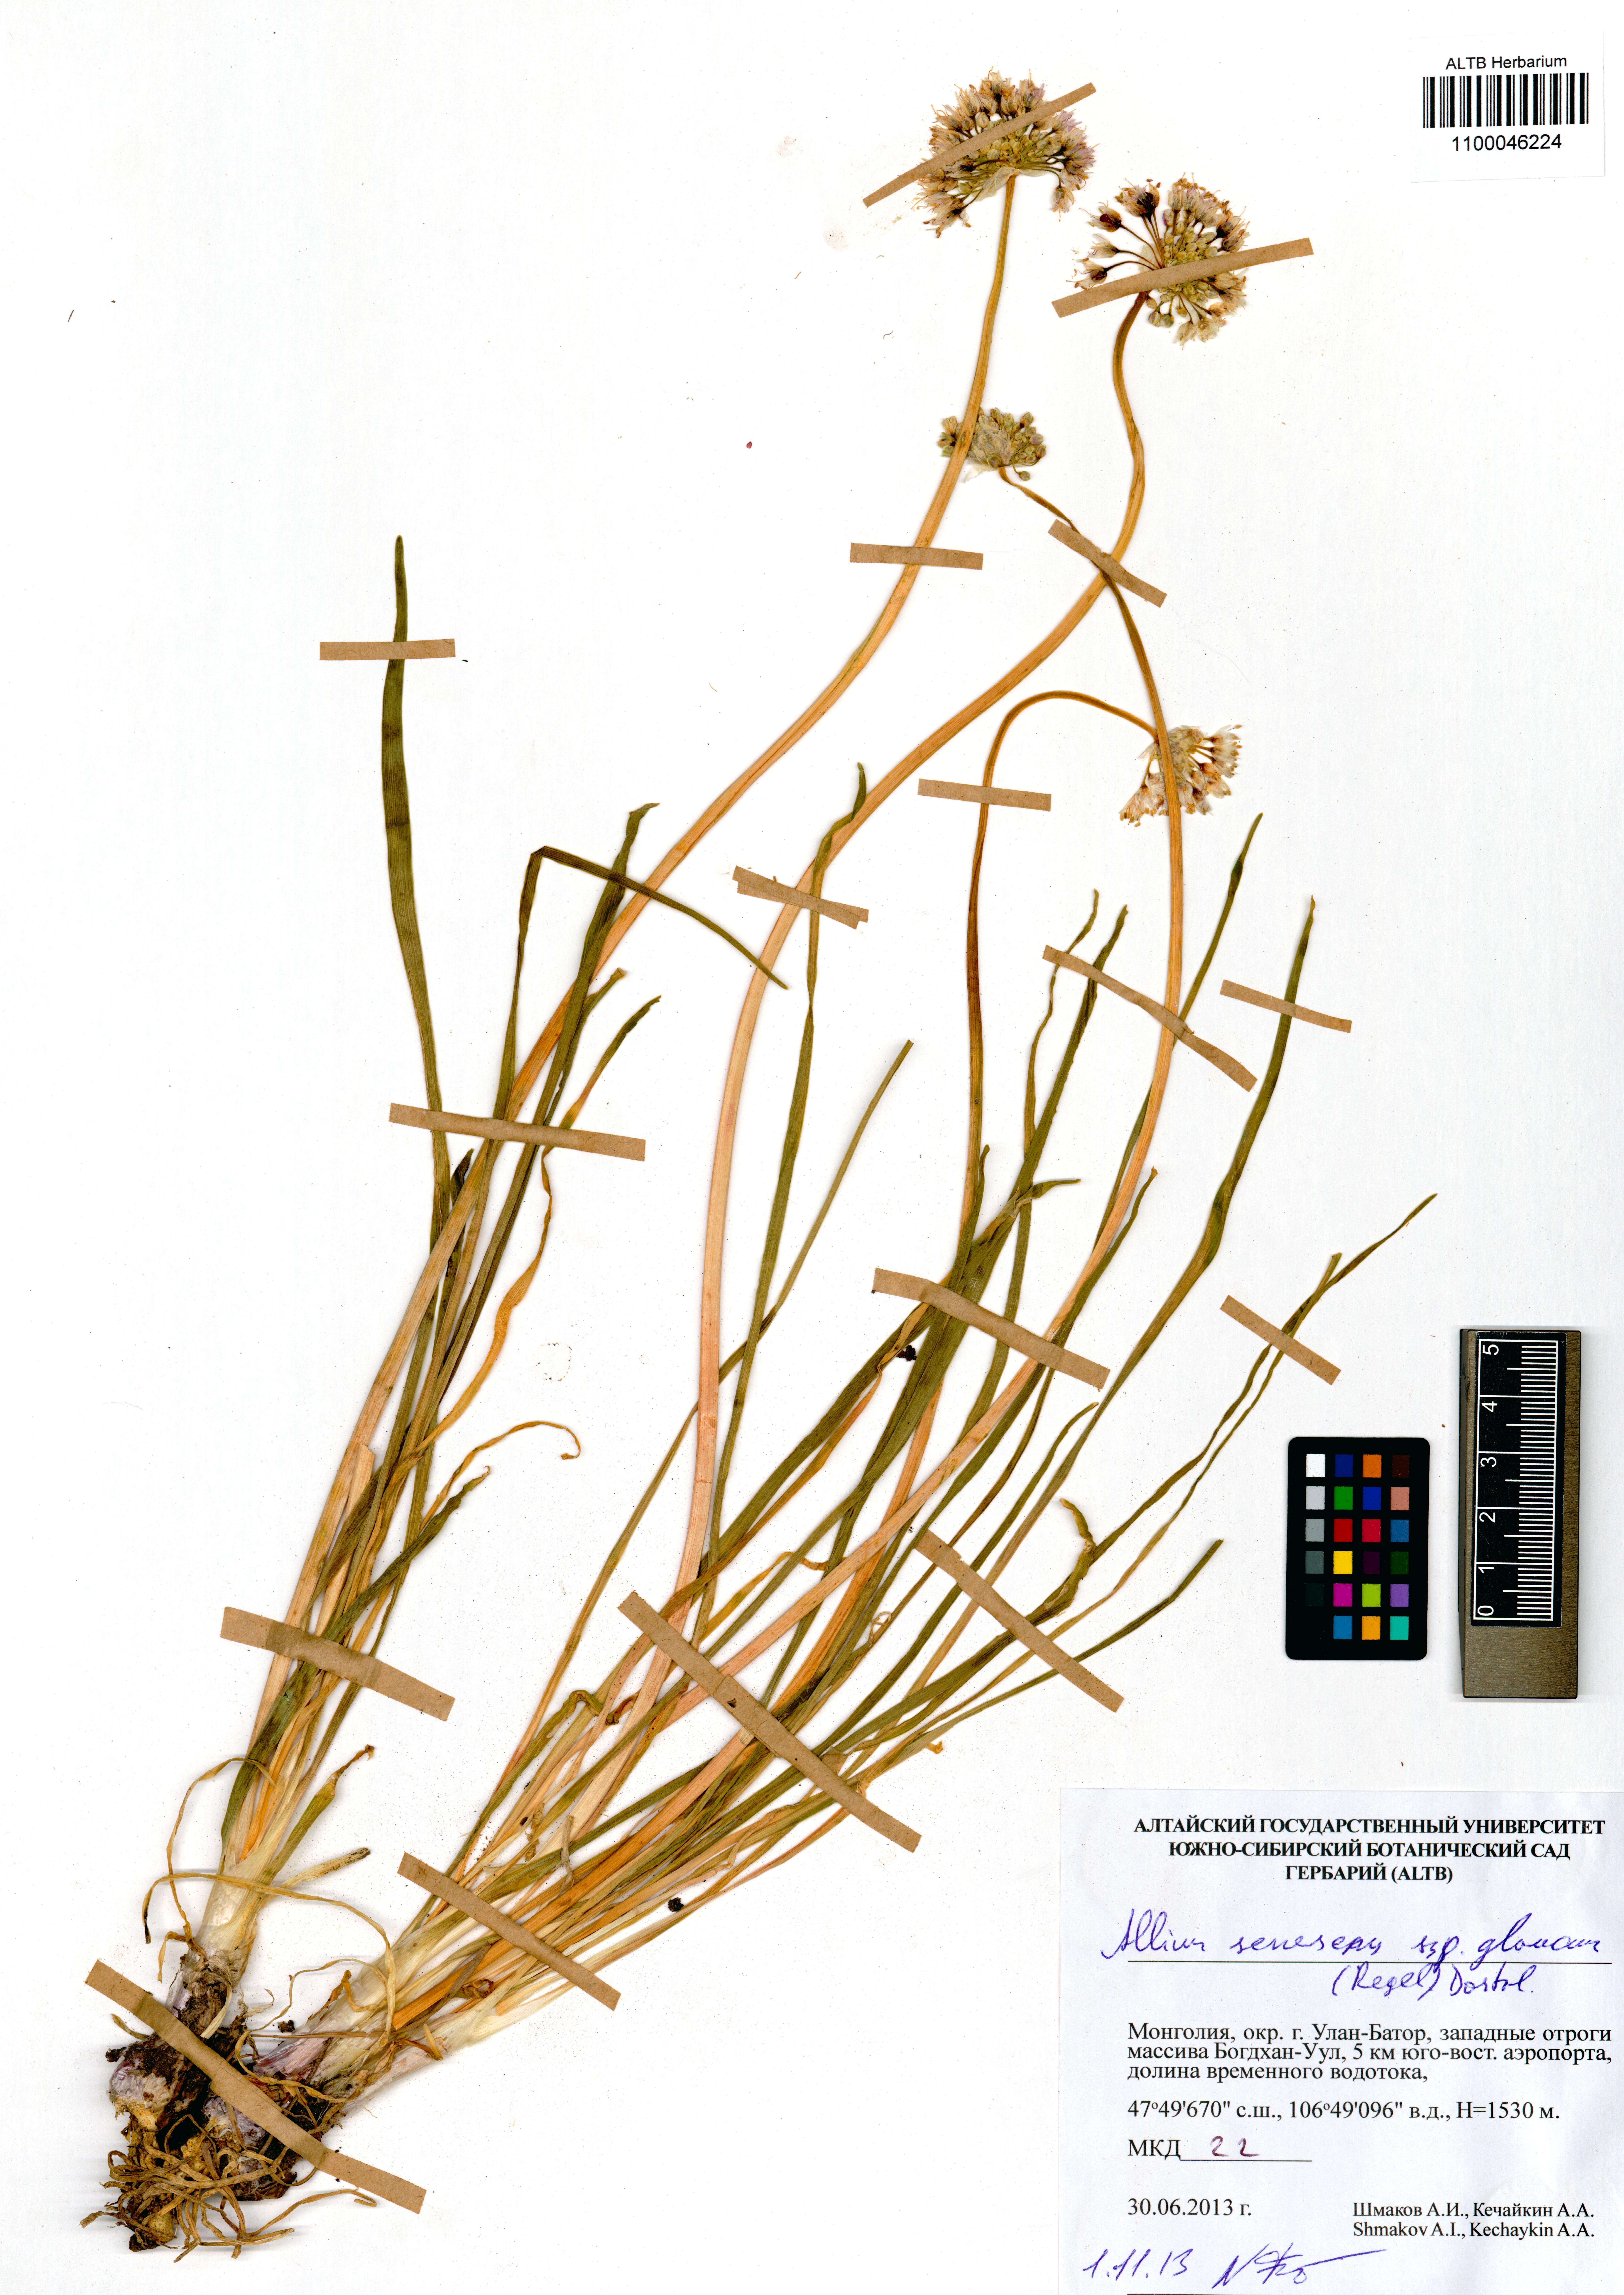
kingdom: Plantae
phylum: Tracheophyta
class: Liliopsida
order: Asparagales
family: Amaryllidaceae
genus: Allium
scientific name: Allium senescens
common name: German garlic
